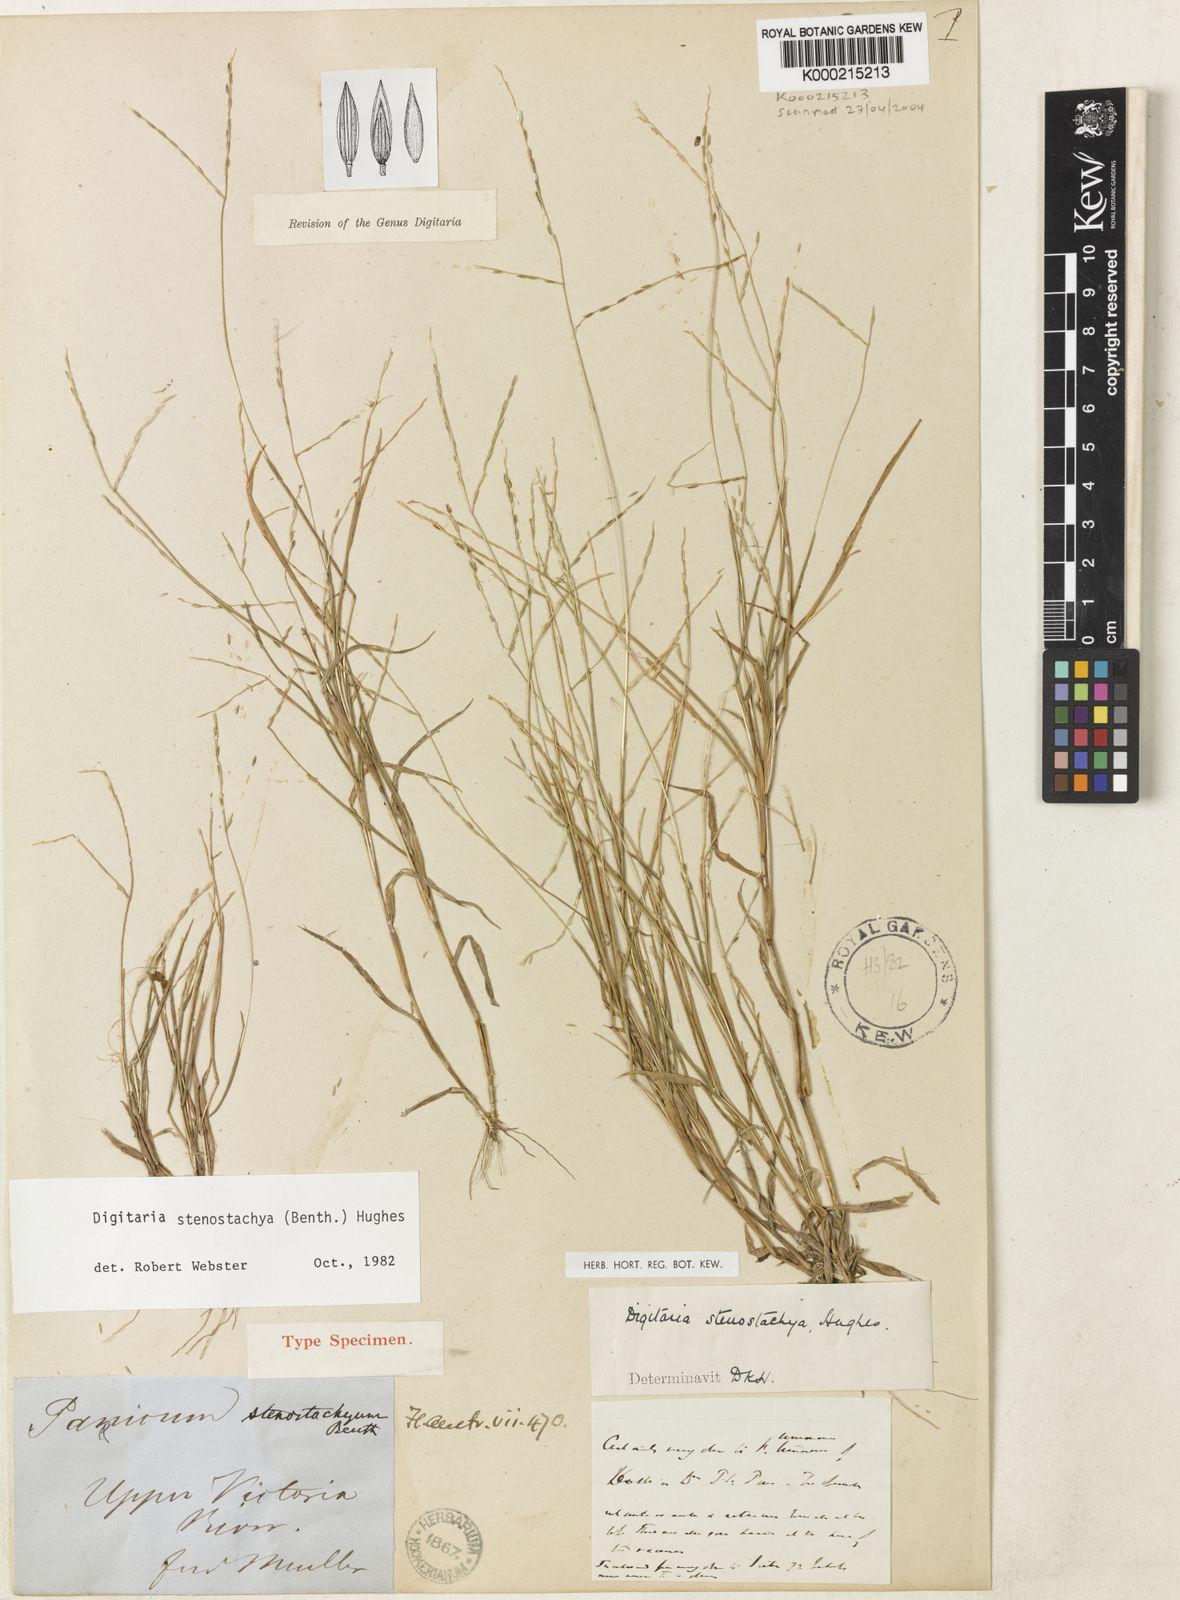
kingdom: Plantae
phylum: Tracheophyta
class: Liliopsida
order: Poales
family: Poaceae
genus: Digitaria
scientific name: Digitaria stenostachya
